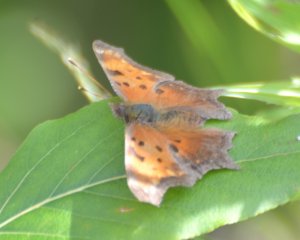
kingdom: Animalia
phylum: Arthropoda
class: Insecta
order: Lepidoptera
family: Nymphalidae
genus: Polygonia
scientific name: Polygonia progne
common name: Gray Comma
